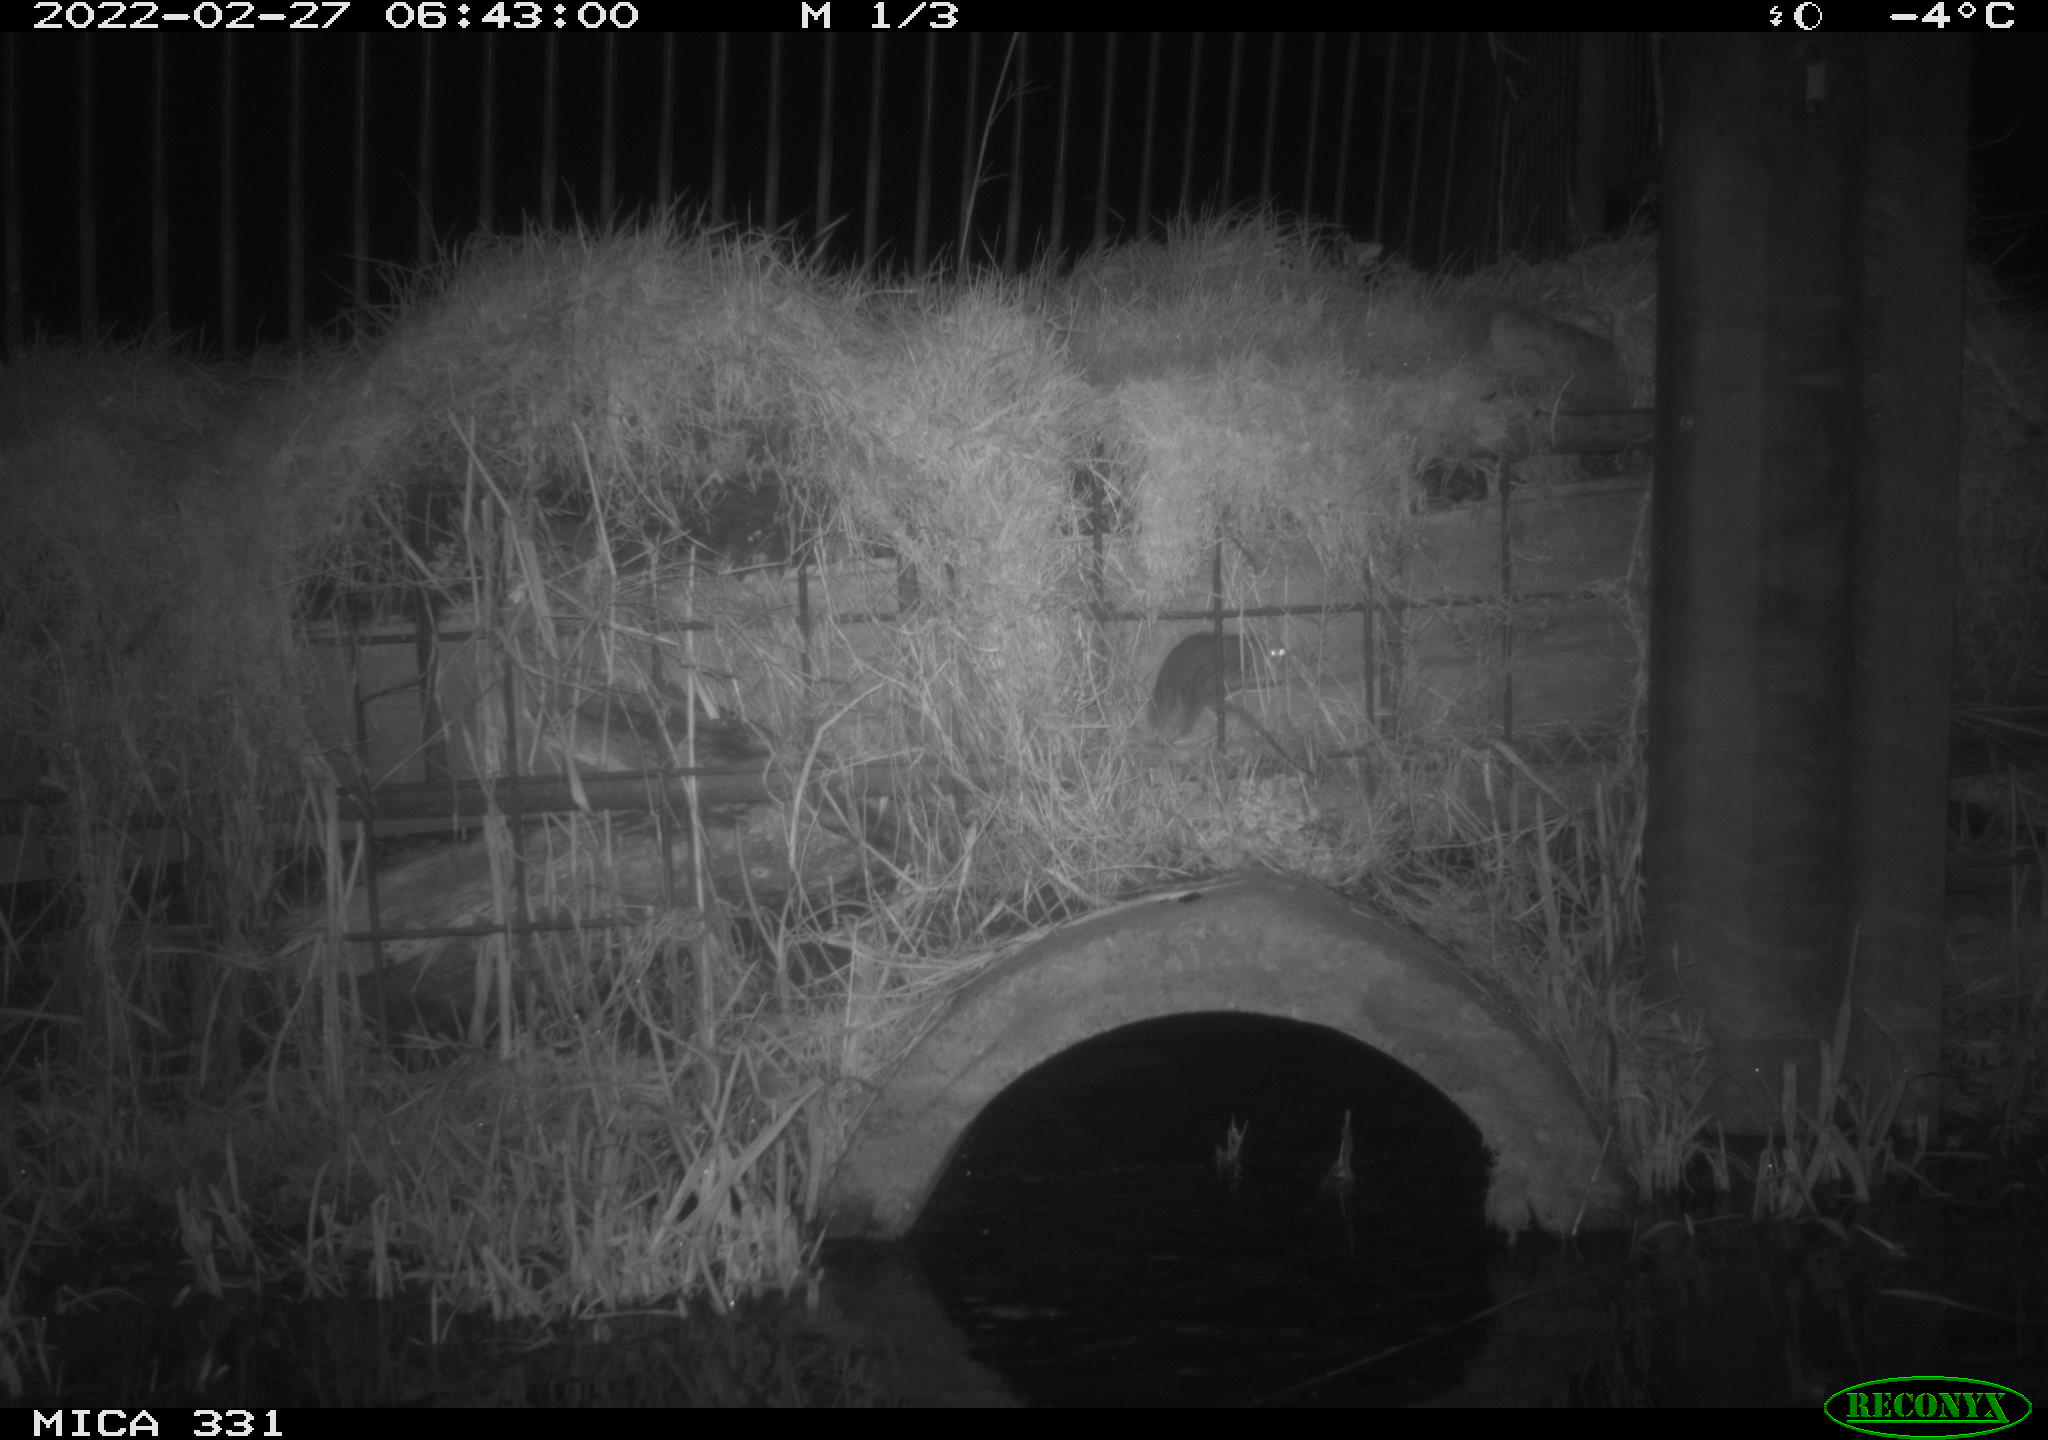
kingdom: Animalia
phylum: Chordata
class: Mammalia
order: Rodentia
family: Muridae
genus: Rattus
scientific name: Rattus norvegicus
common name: Brown rat
